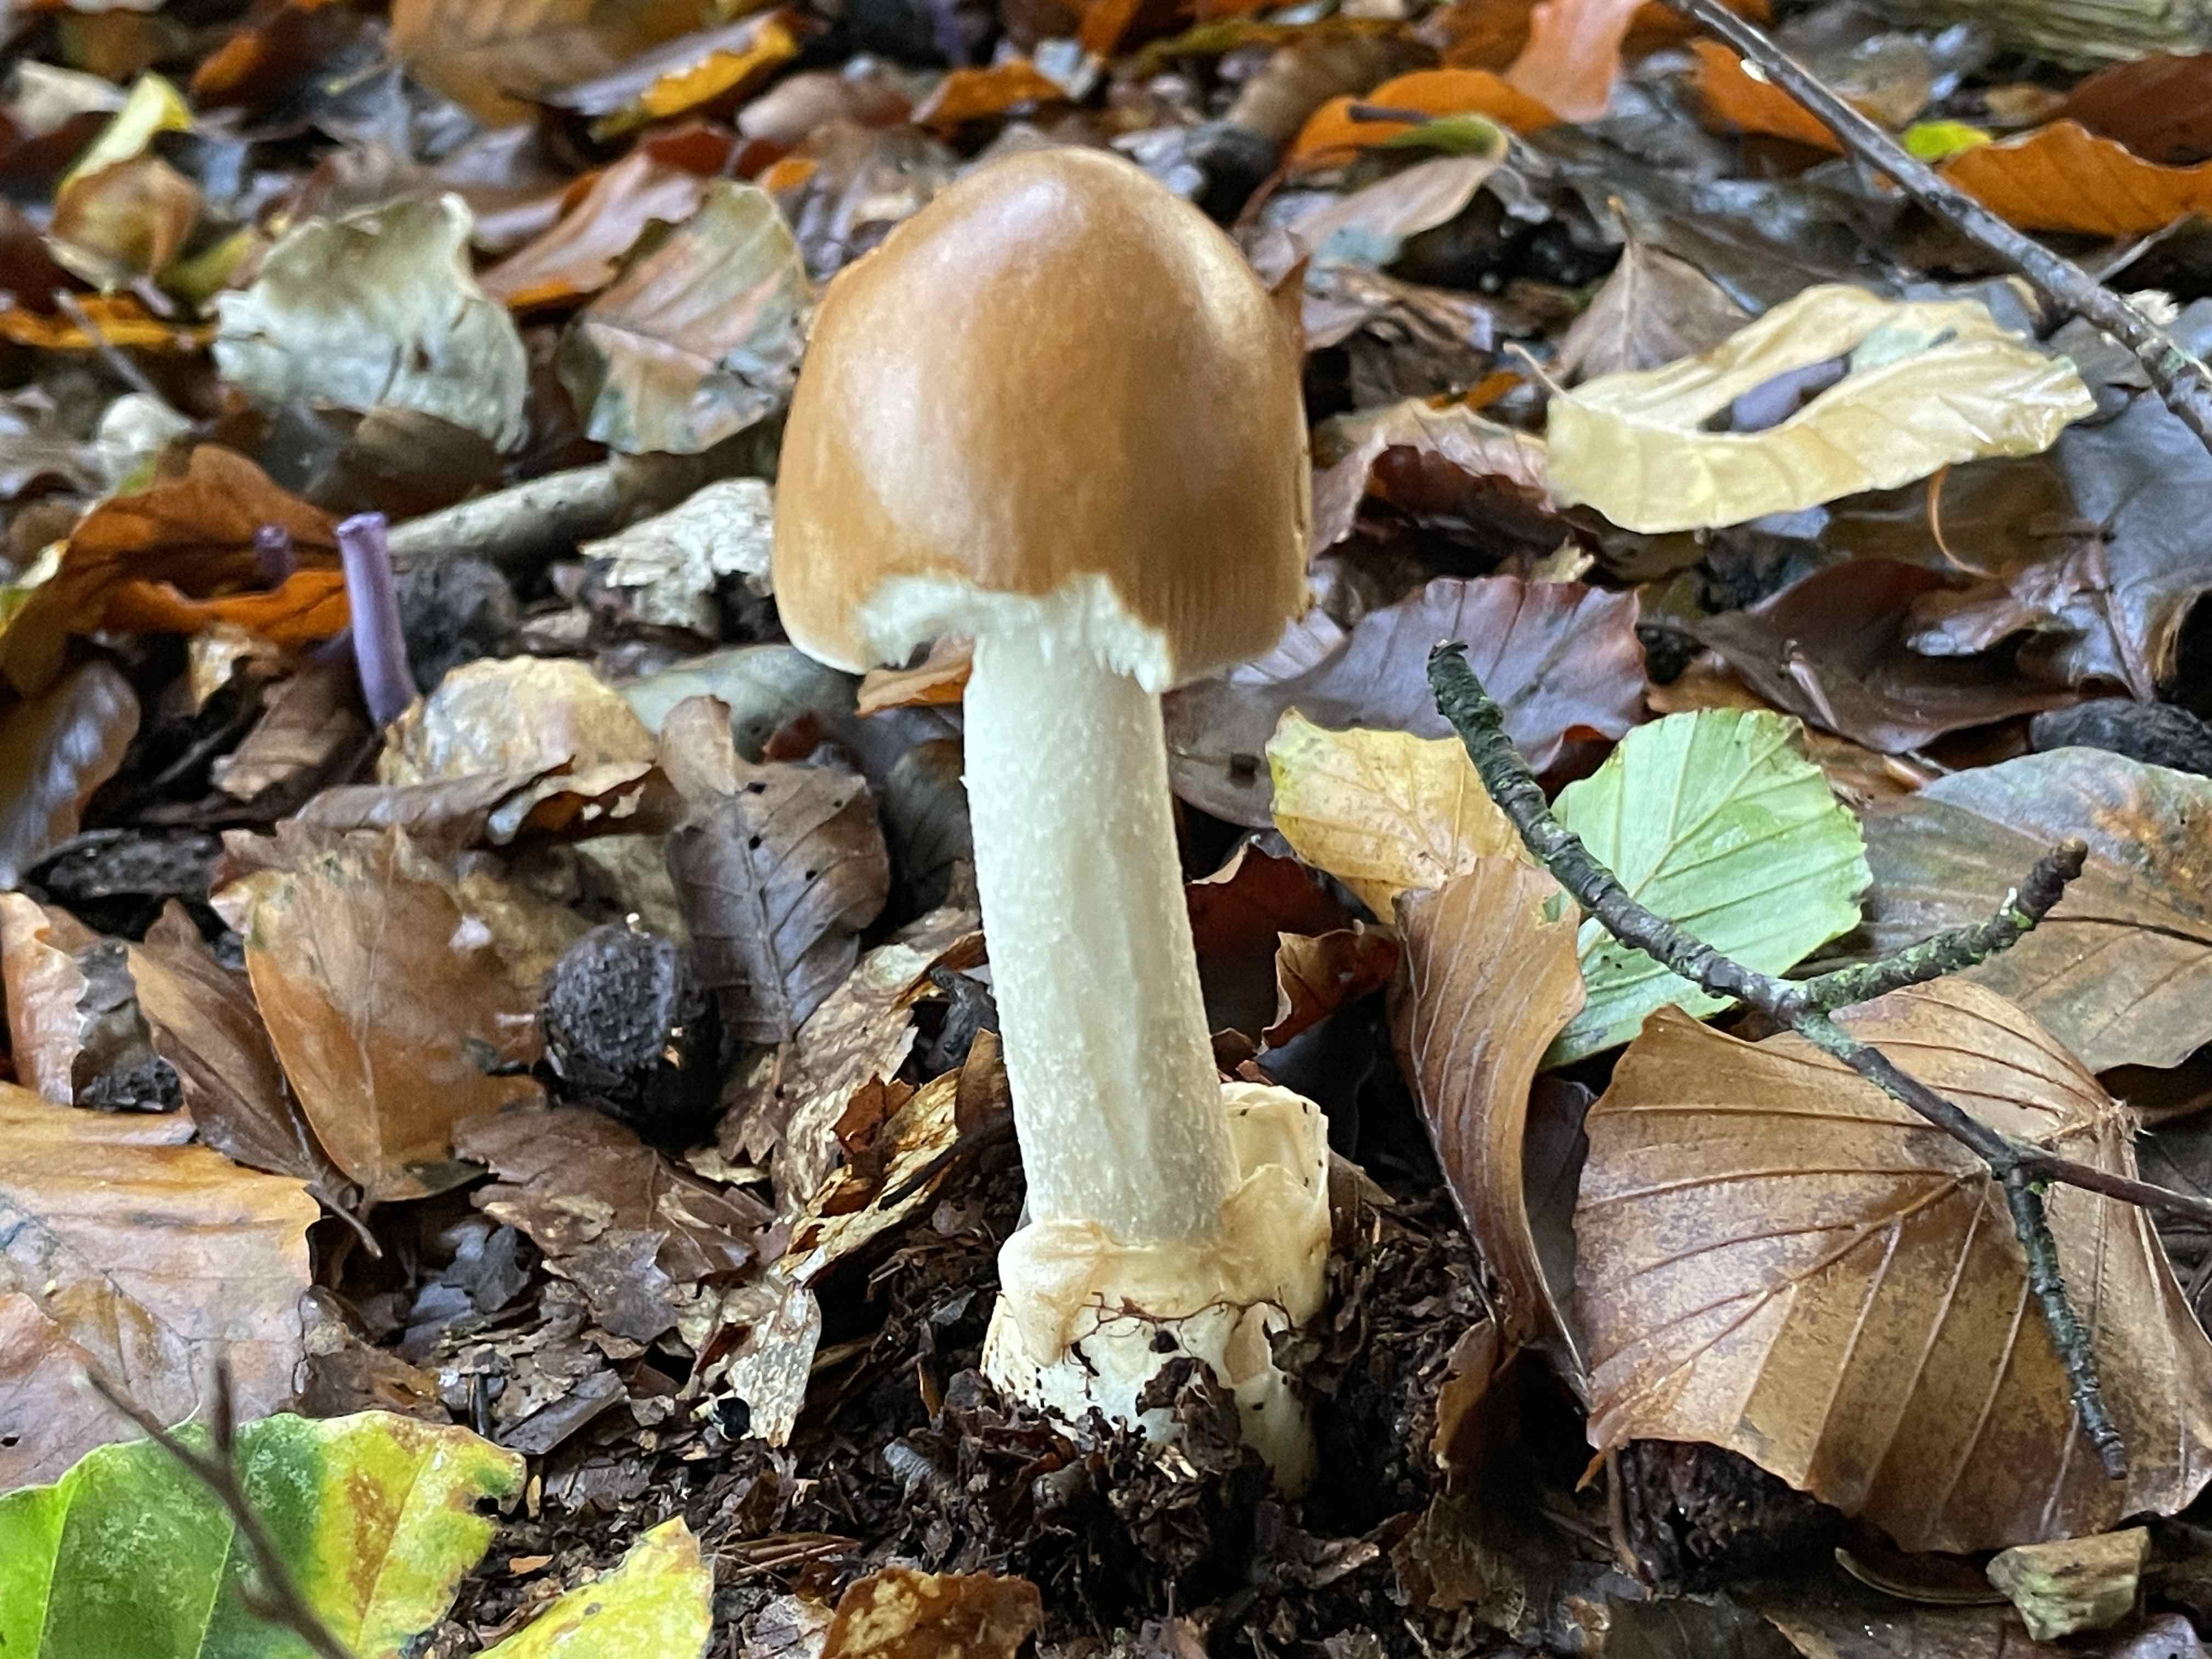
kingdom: Fungi
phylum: Basidiomycota
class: Agaricomycetes
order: Agaricales
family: Amanitaceae
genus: Amanita
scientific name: Amanita fulva
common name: brun kam-fluesvamp
